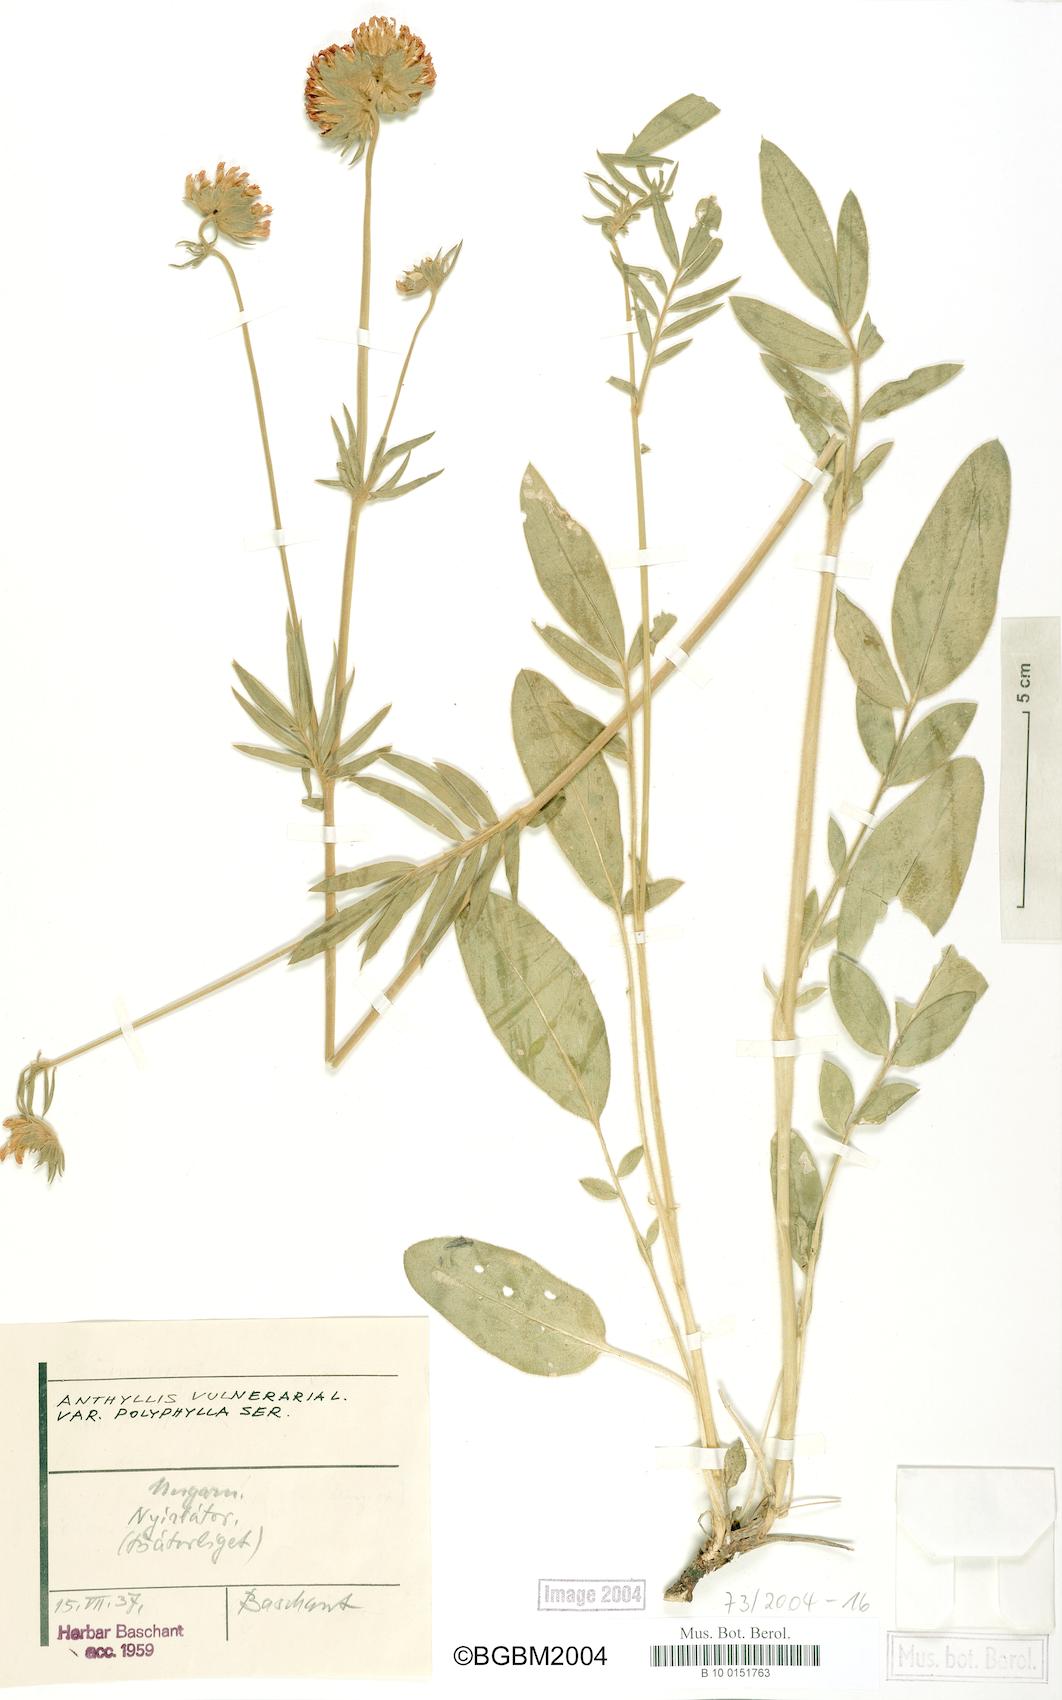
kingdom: Plantae
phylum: Tracheophyta
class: Magnoliopsida
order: Fabales
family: Fabaceae
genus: Anthyllis
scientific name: Anthyllis vulneraria
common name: Kidney vetch
